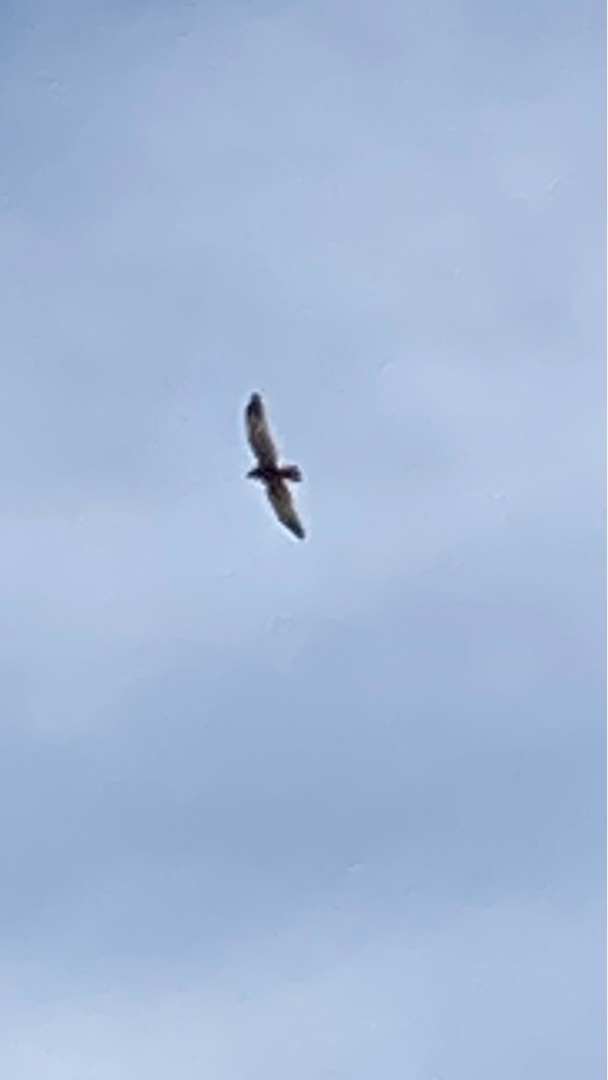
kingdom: Animalia
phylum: Chordata
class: Aves
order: Accipitriformes
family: Accipitridae
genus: Circus
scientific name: Circus aeruginosus
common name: Rørhøg
